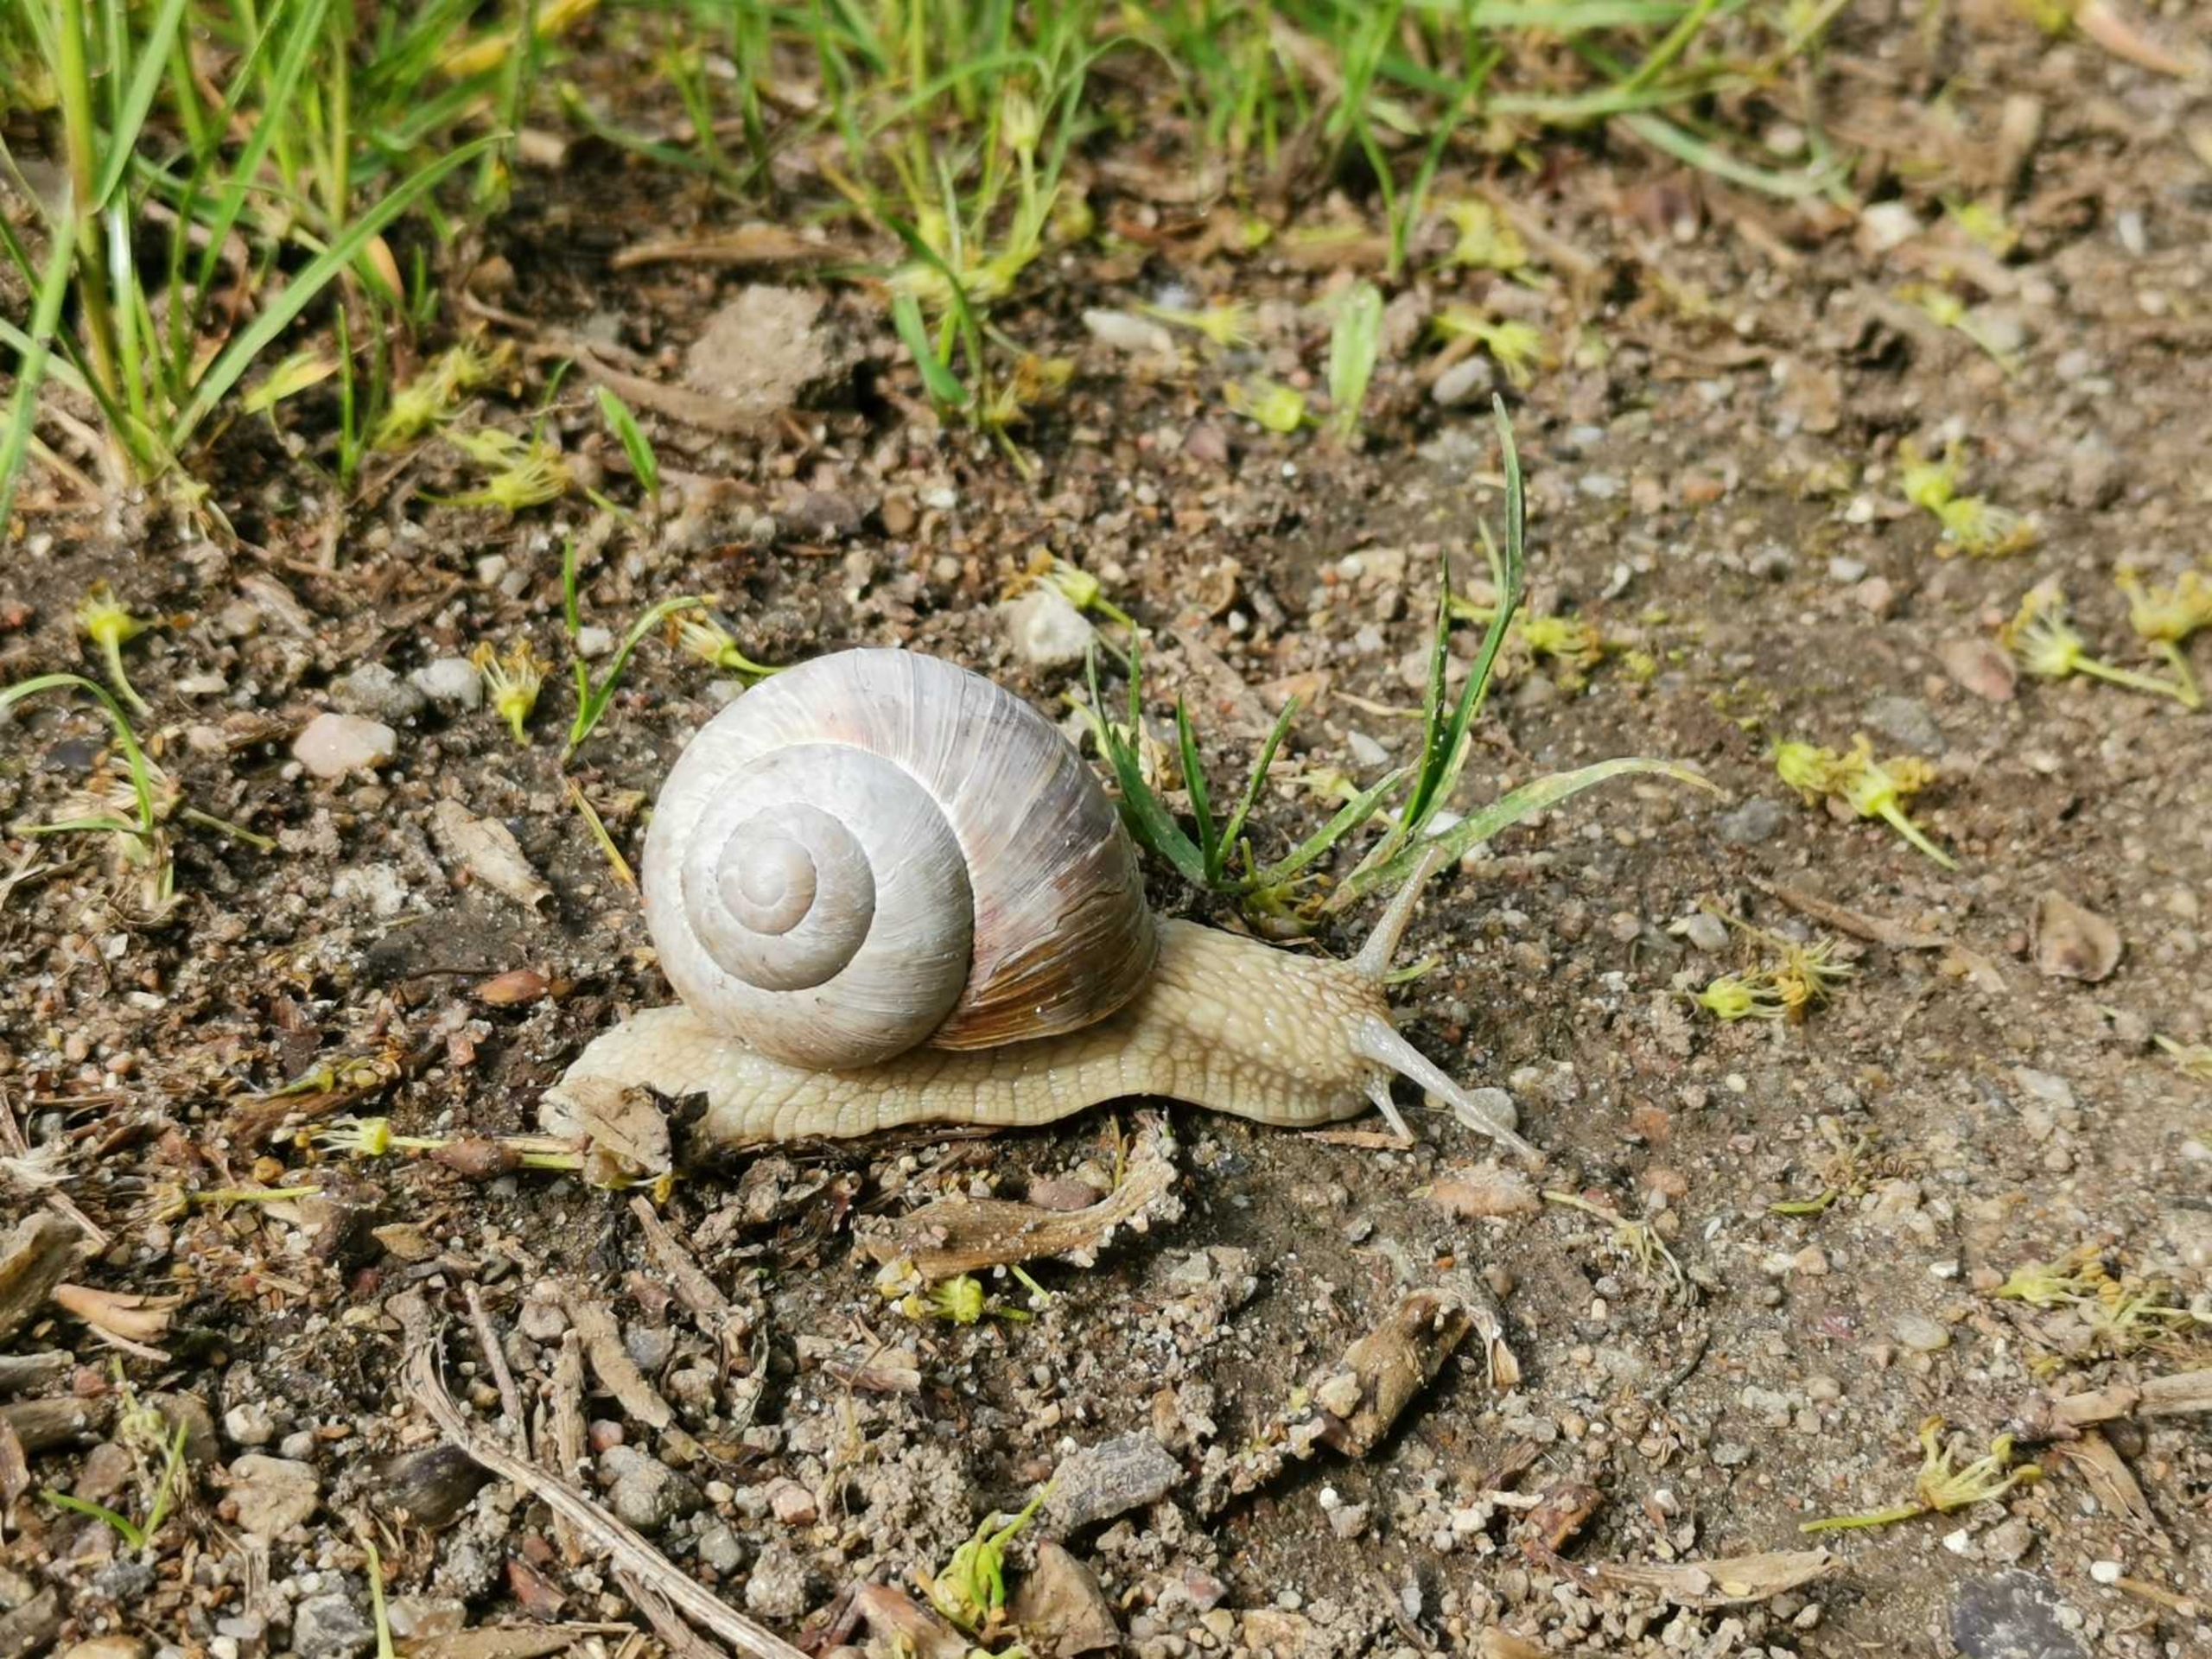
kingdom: Animalia
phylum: Mollusca
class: Gastropoda
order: Stylommatophora
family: Helicidae
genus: Helix
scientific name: Helix pomatia
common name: Vinbjergsnegl
